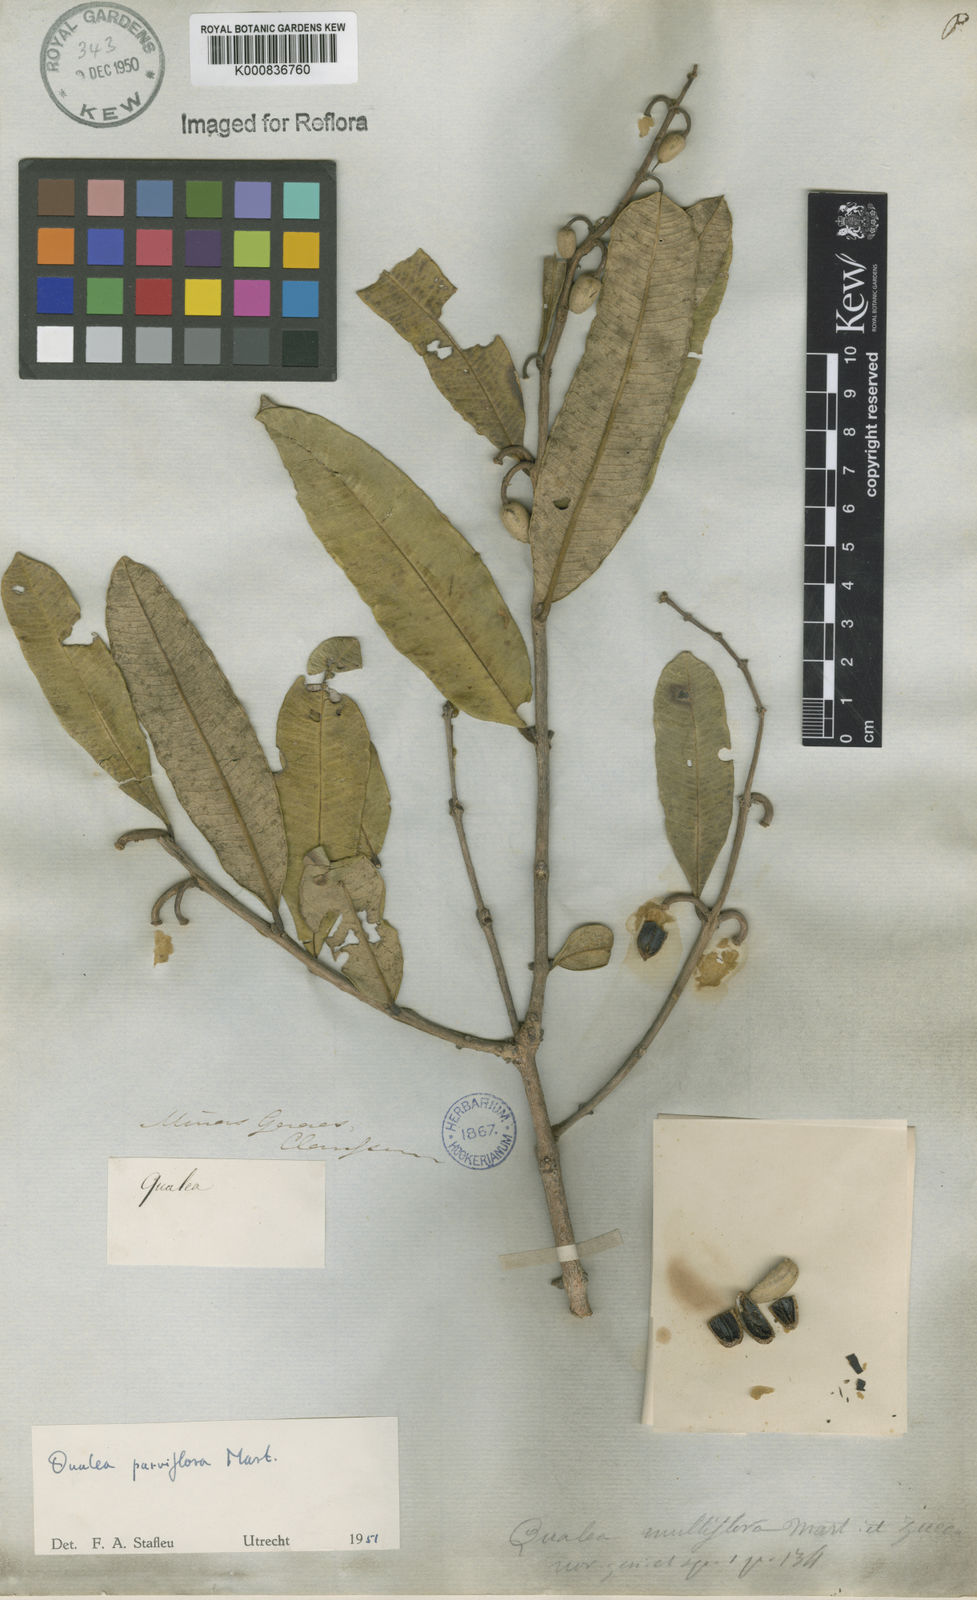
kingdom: Plantae
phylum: Tracheophyta
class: Magnoliopsida
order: Myrtales
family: Vochysiaceae
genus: Qualea
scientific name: Qualea parviflora
